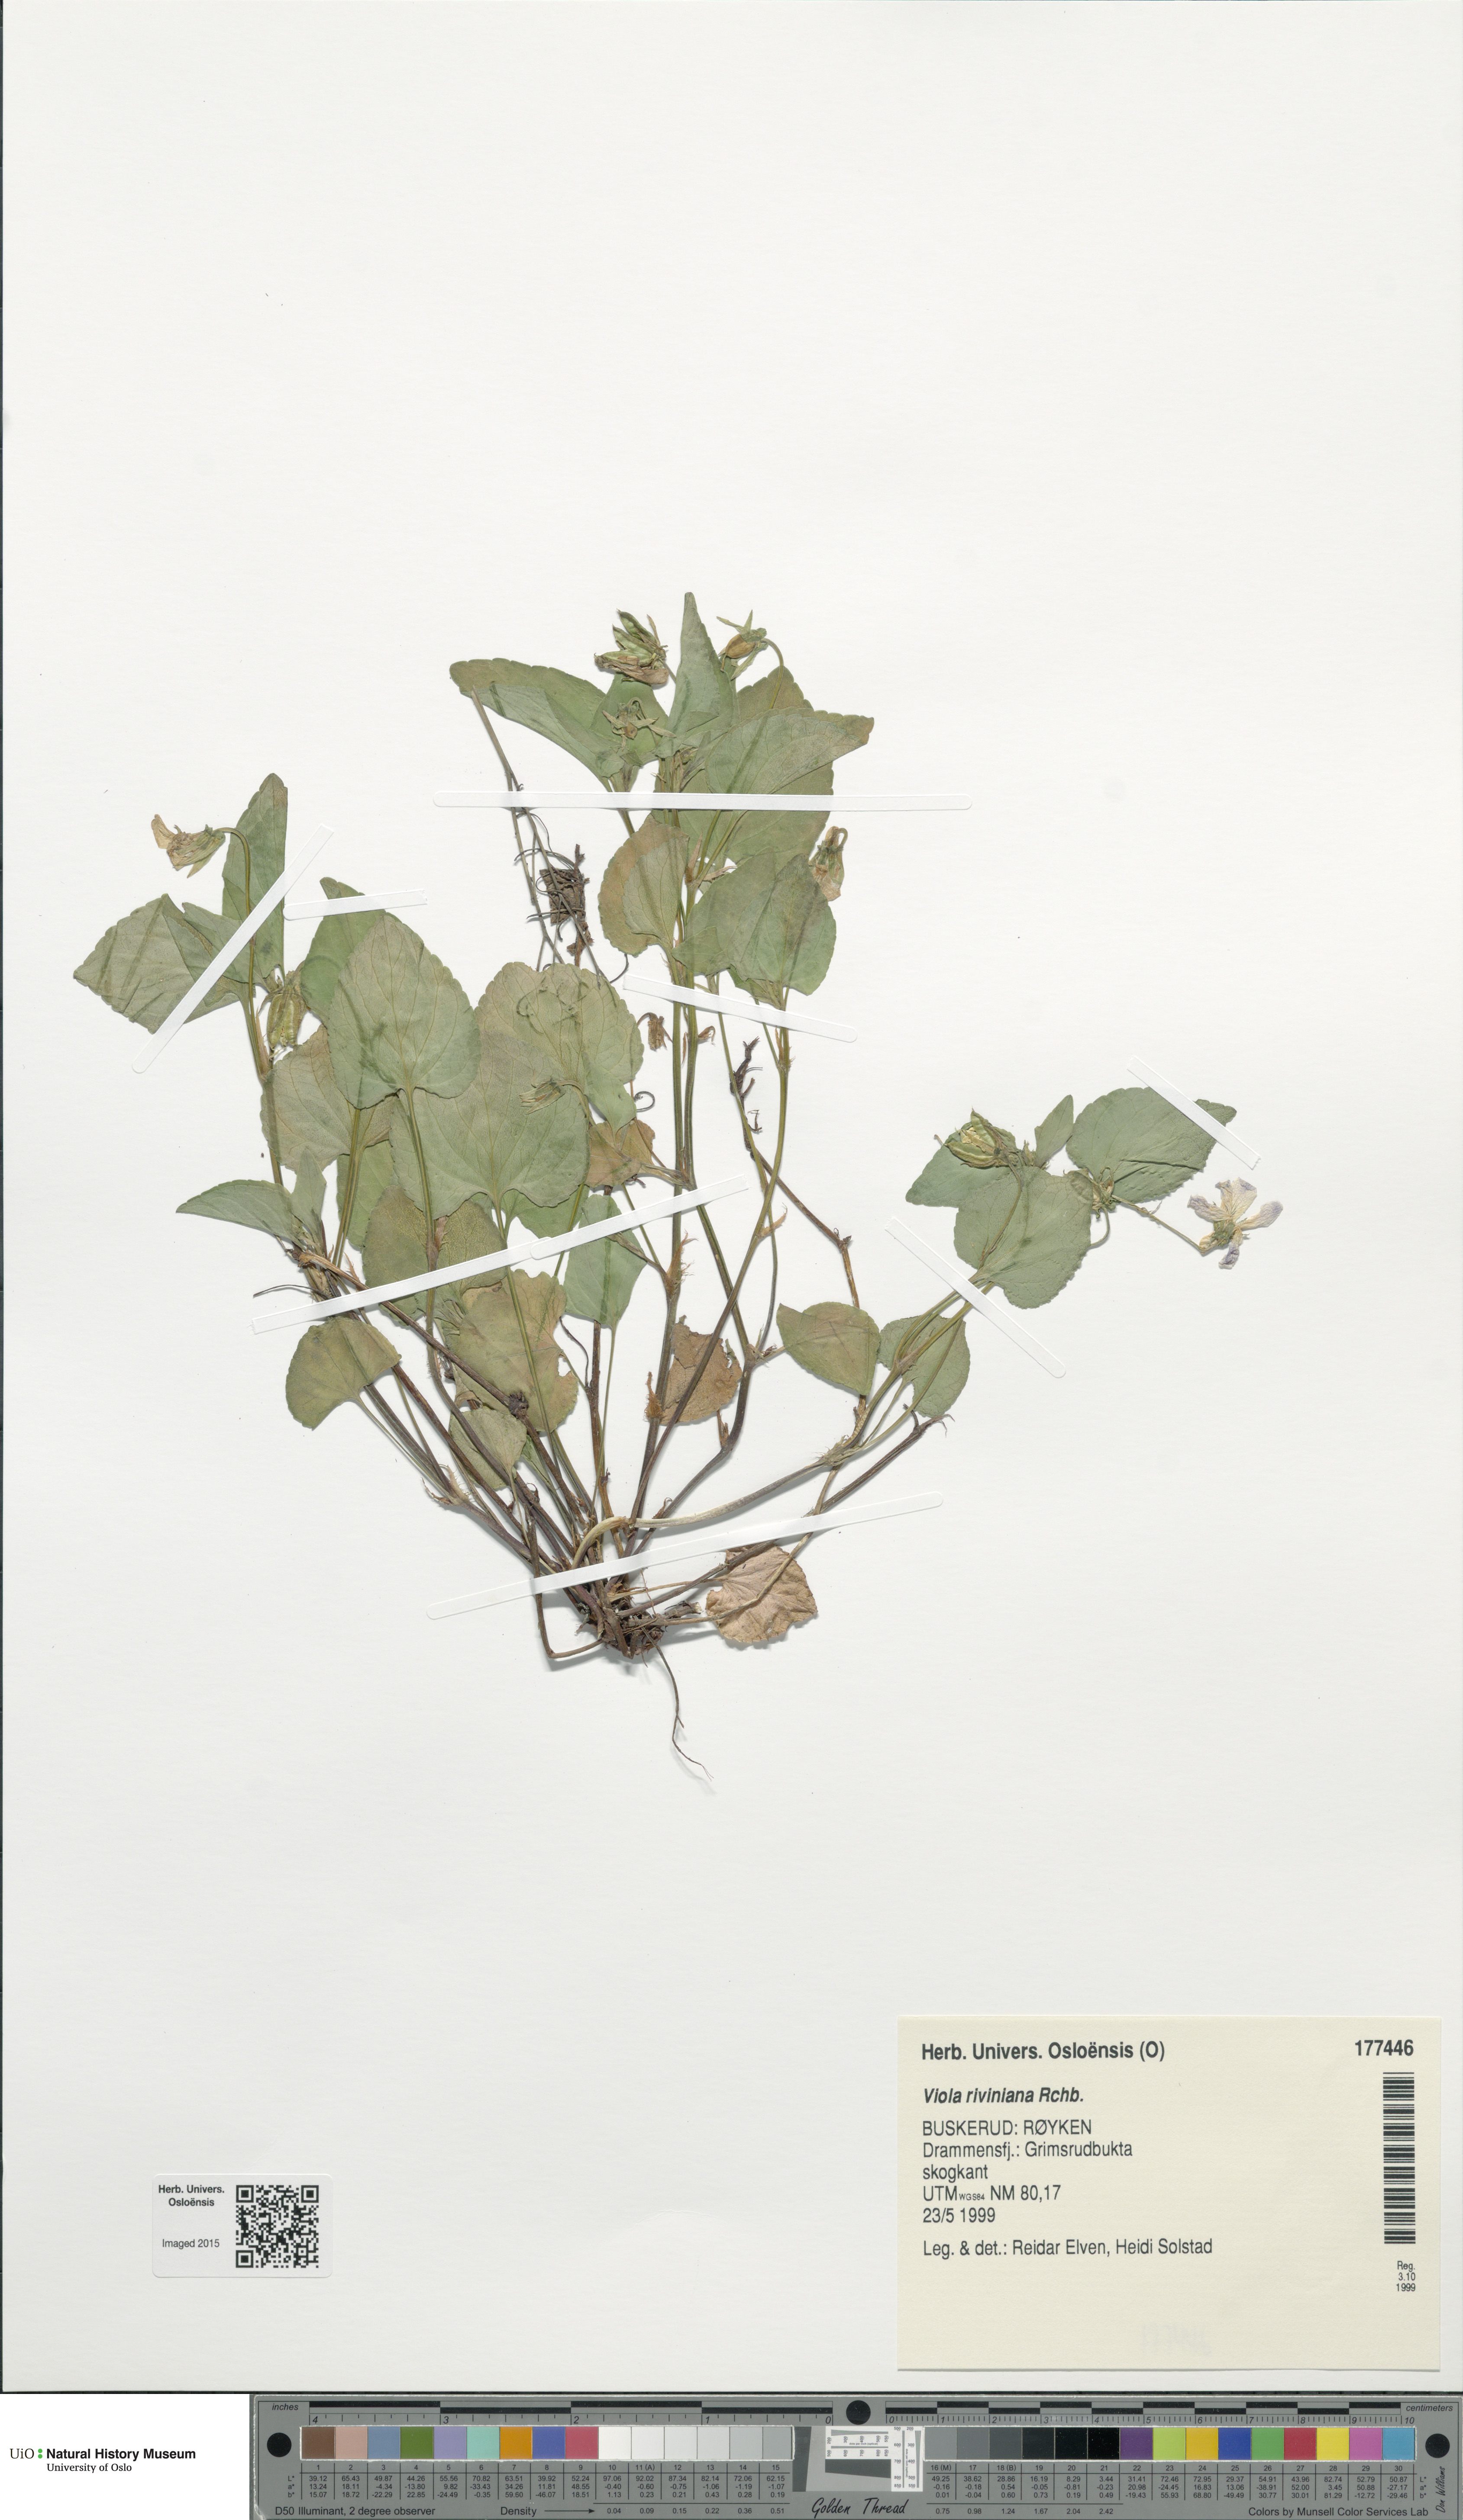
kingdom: Plantae
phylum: Tracheophyta
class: Magnoliopsida
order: Malpighiales
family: Violaceae
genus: Viola
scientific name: Viola riviniana
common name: Common dog-violet
